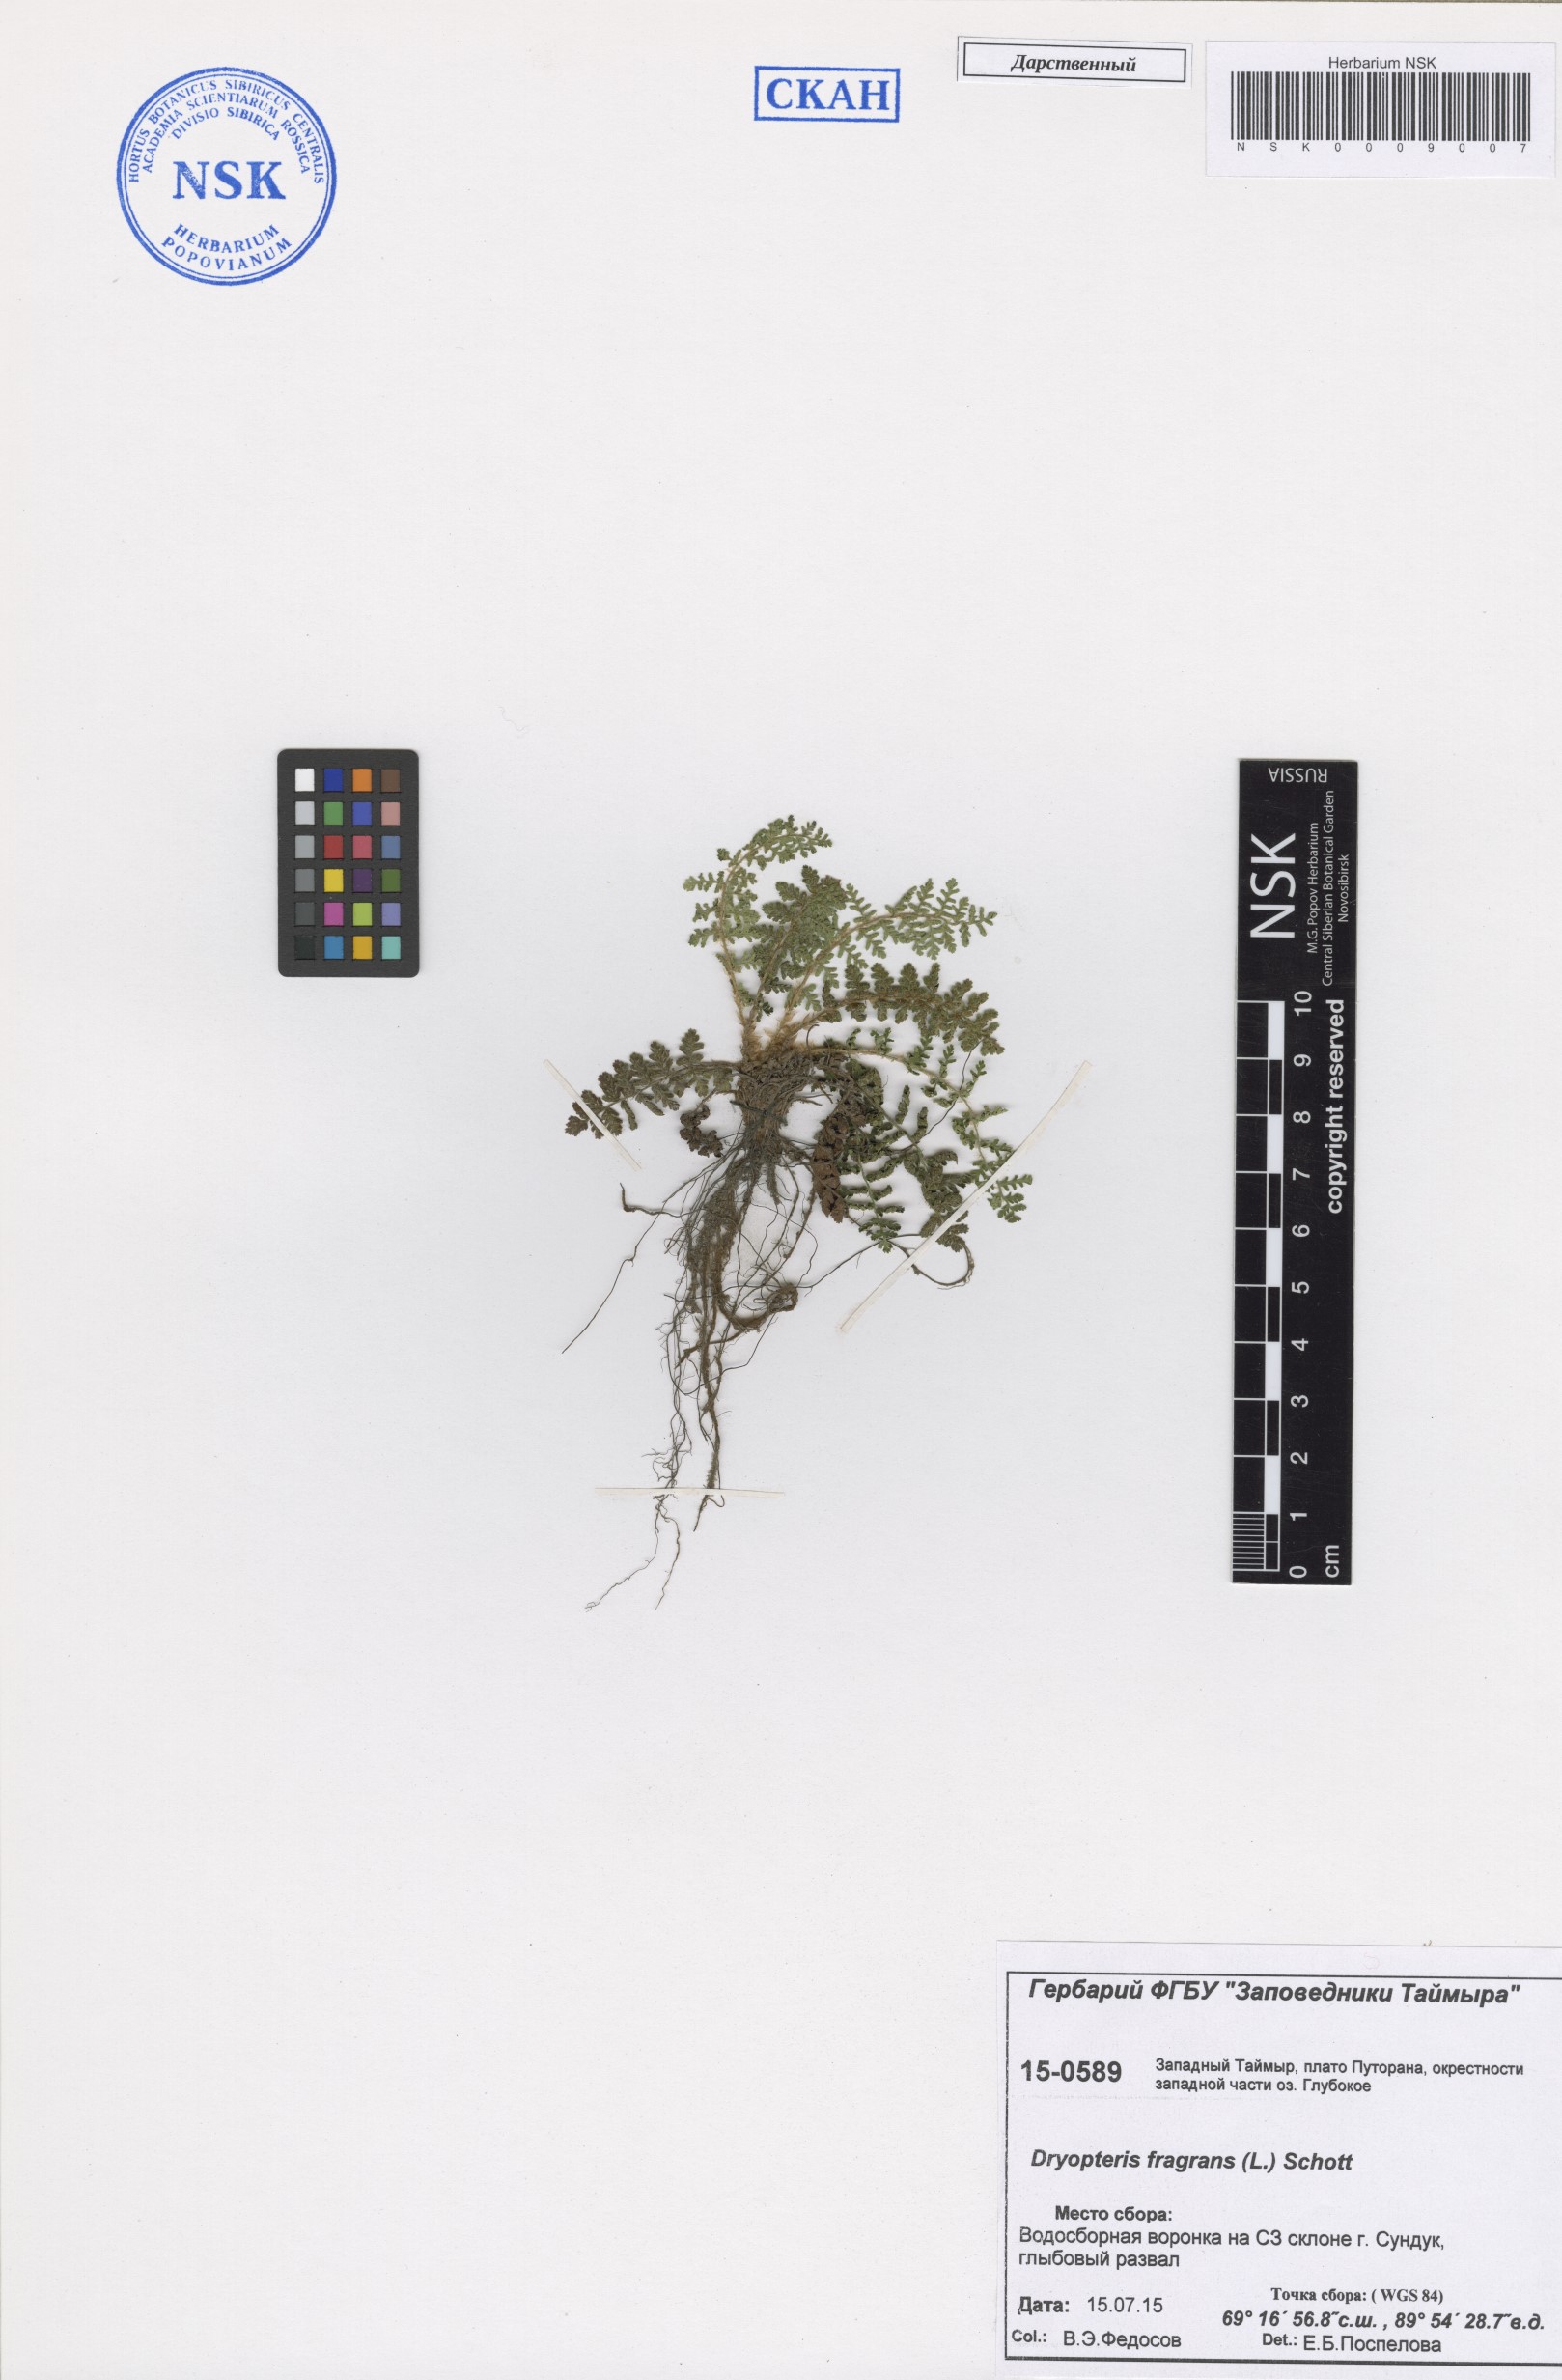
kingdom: Plantae
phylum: Tracheophyta
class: Polypodiopsida
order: Polypodiales
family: Dryopteridaceae
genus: Dryopteris
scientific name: Dryopteris fragrans
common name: Fragrant wood fern
